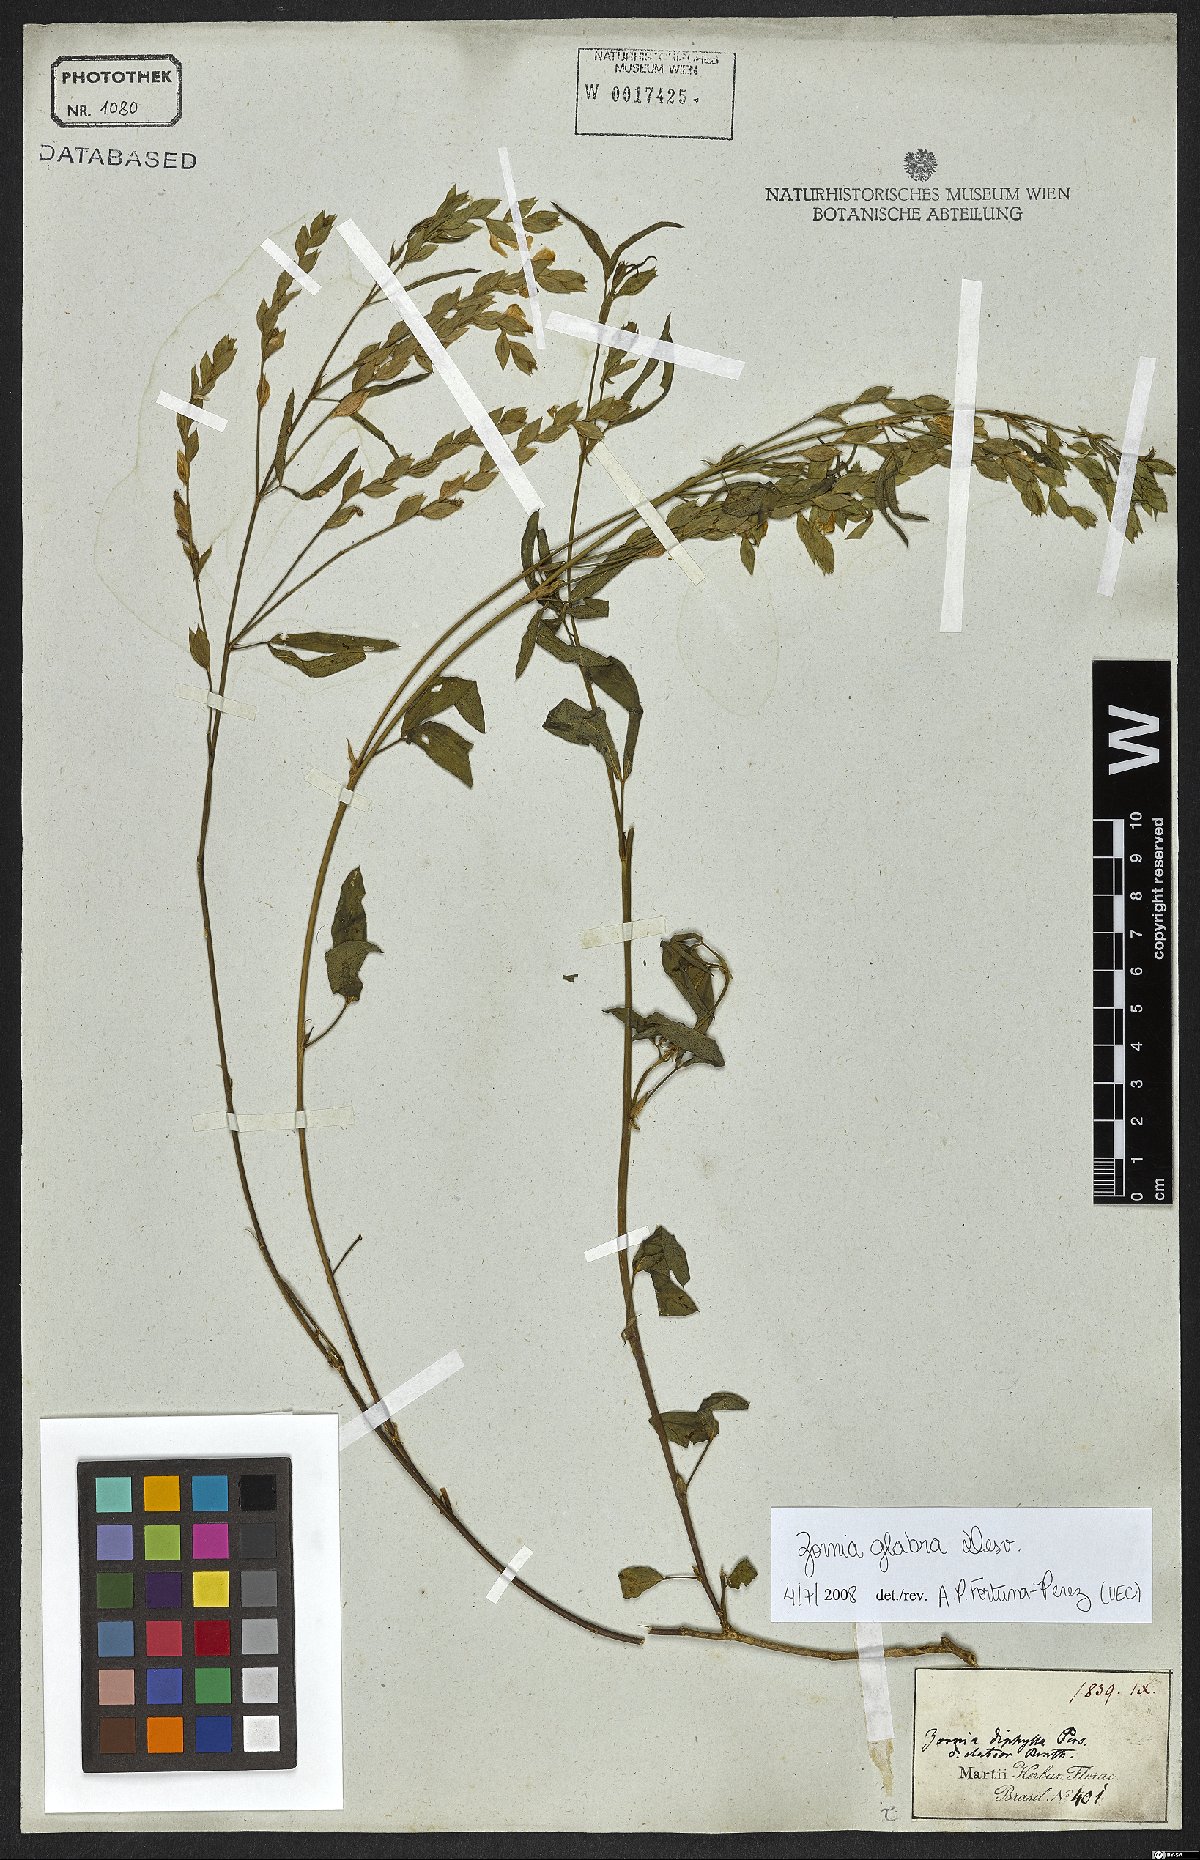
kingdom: Plantae
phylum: Tracheophyta
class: Magnoliopsida
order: Fabales
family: Fabaceae
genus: Zornia
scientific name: Zornia glabra
